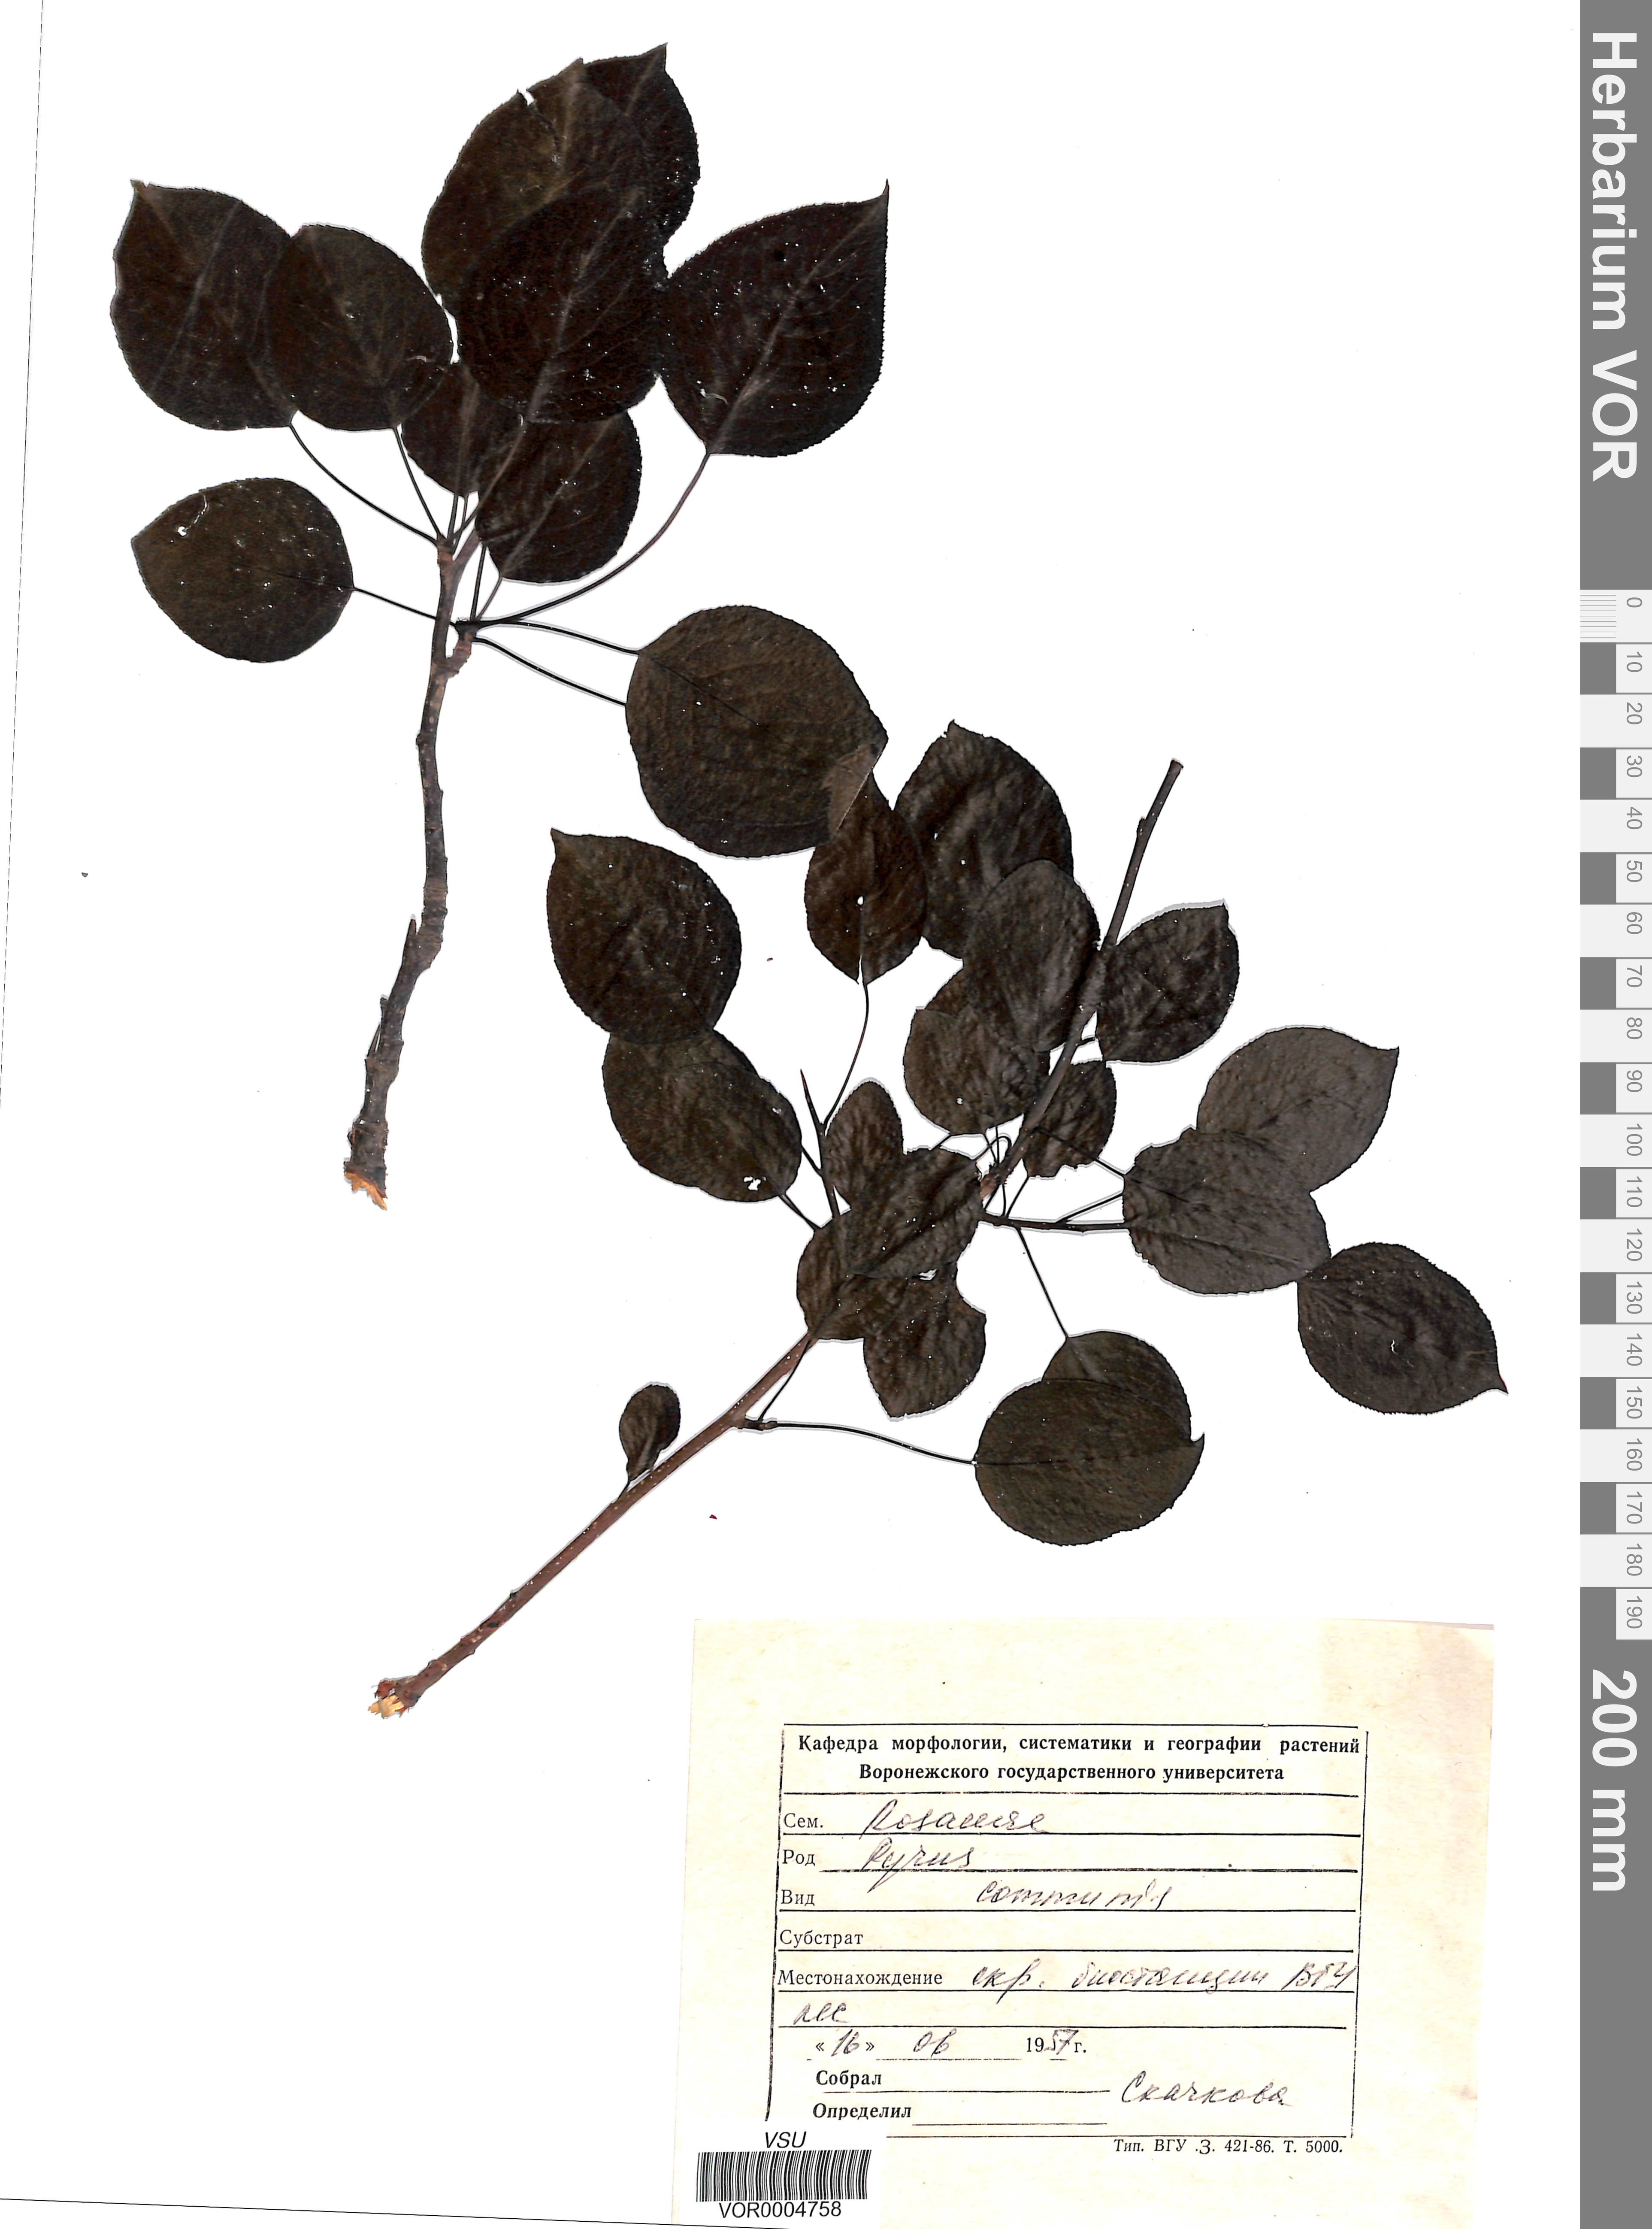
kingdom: Plantae
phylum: Tracheophyta
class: Magnoliopsida
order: Rosales
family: Rosaceae
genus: Pyrus
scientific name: Pyrus communis
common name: Pear
